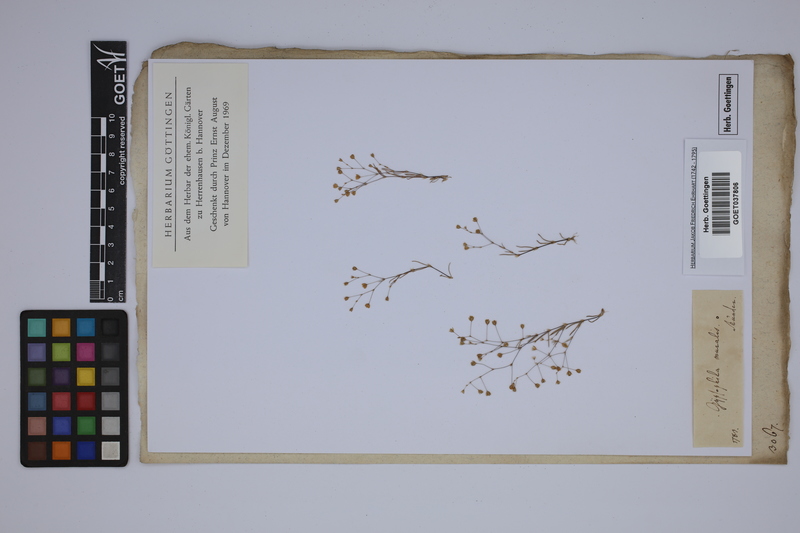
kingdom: Plantae
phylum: Tracheophyta
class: Magnoliopsida
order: Caryophyllales
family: Caryophyllaceae
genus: Psammophiliella
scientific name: Psammophiliella muralis
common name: Cushion baby's-breath
